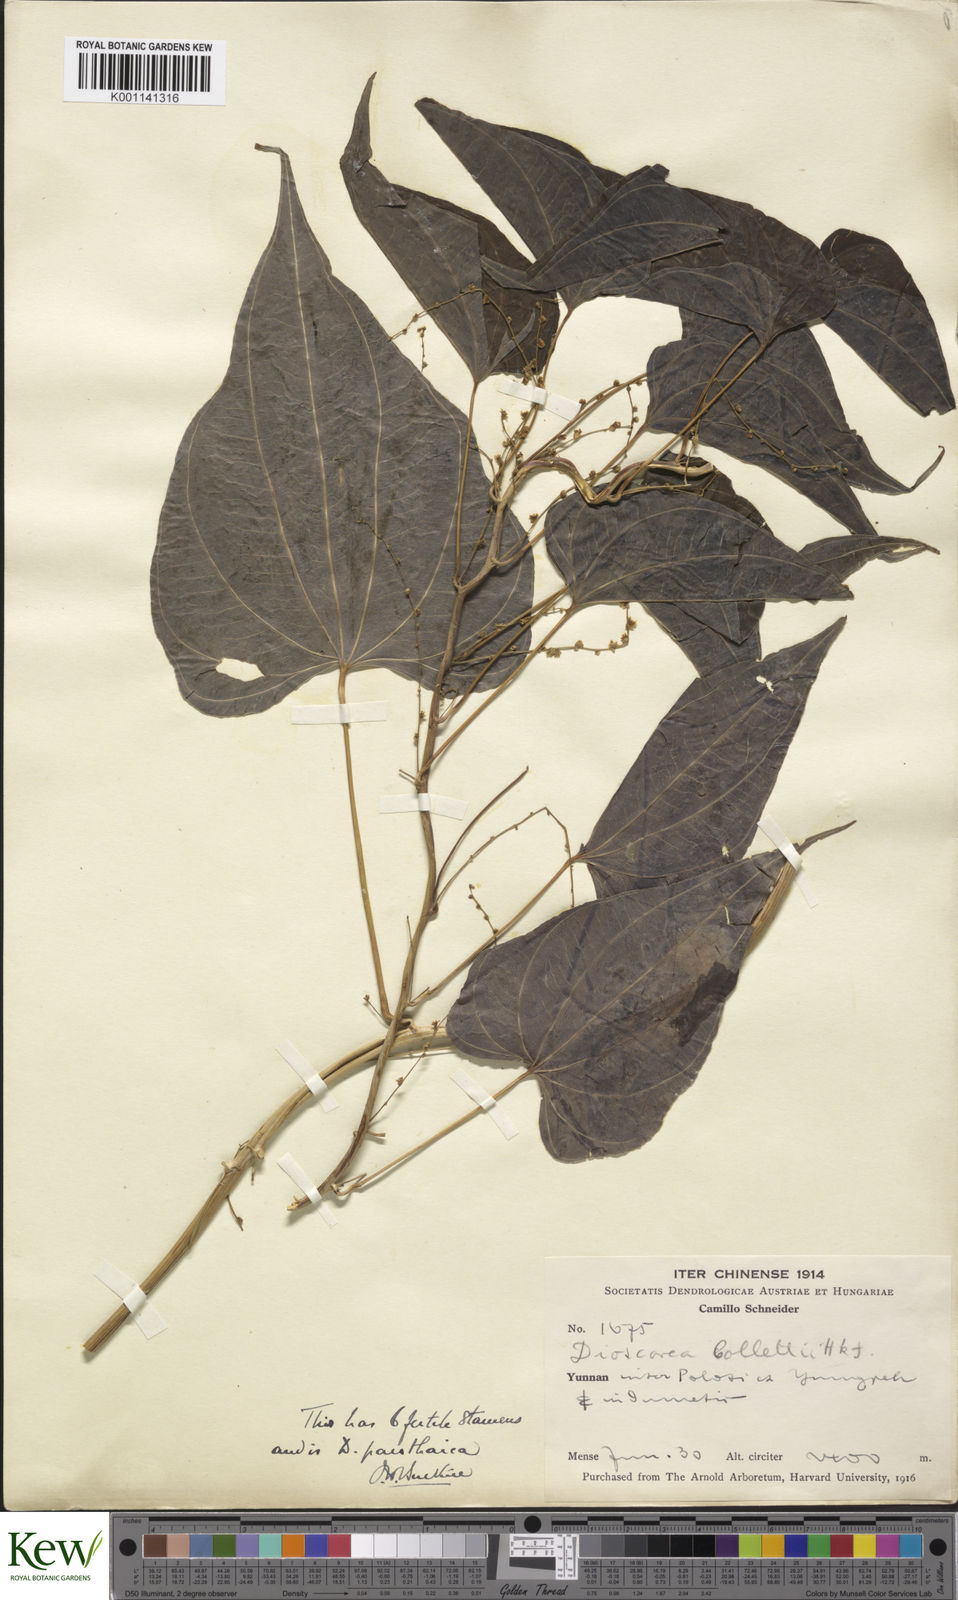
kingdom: Plantae
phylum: Tracheophyta
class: Liliopsida
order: Dioscoreales
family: Dioscoreaceae
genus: Dioscorea
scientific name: Dioscorea panthaica
